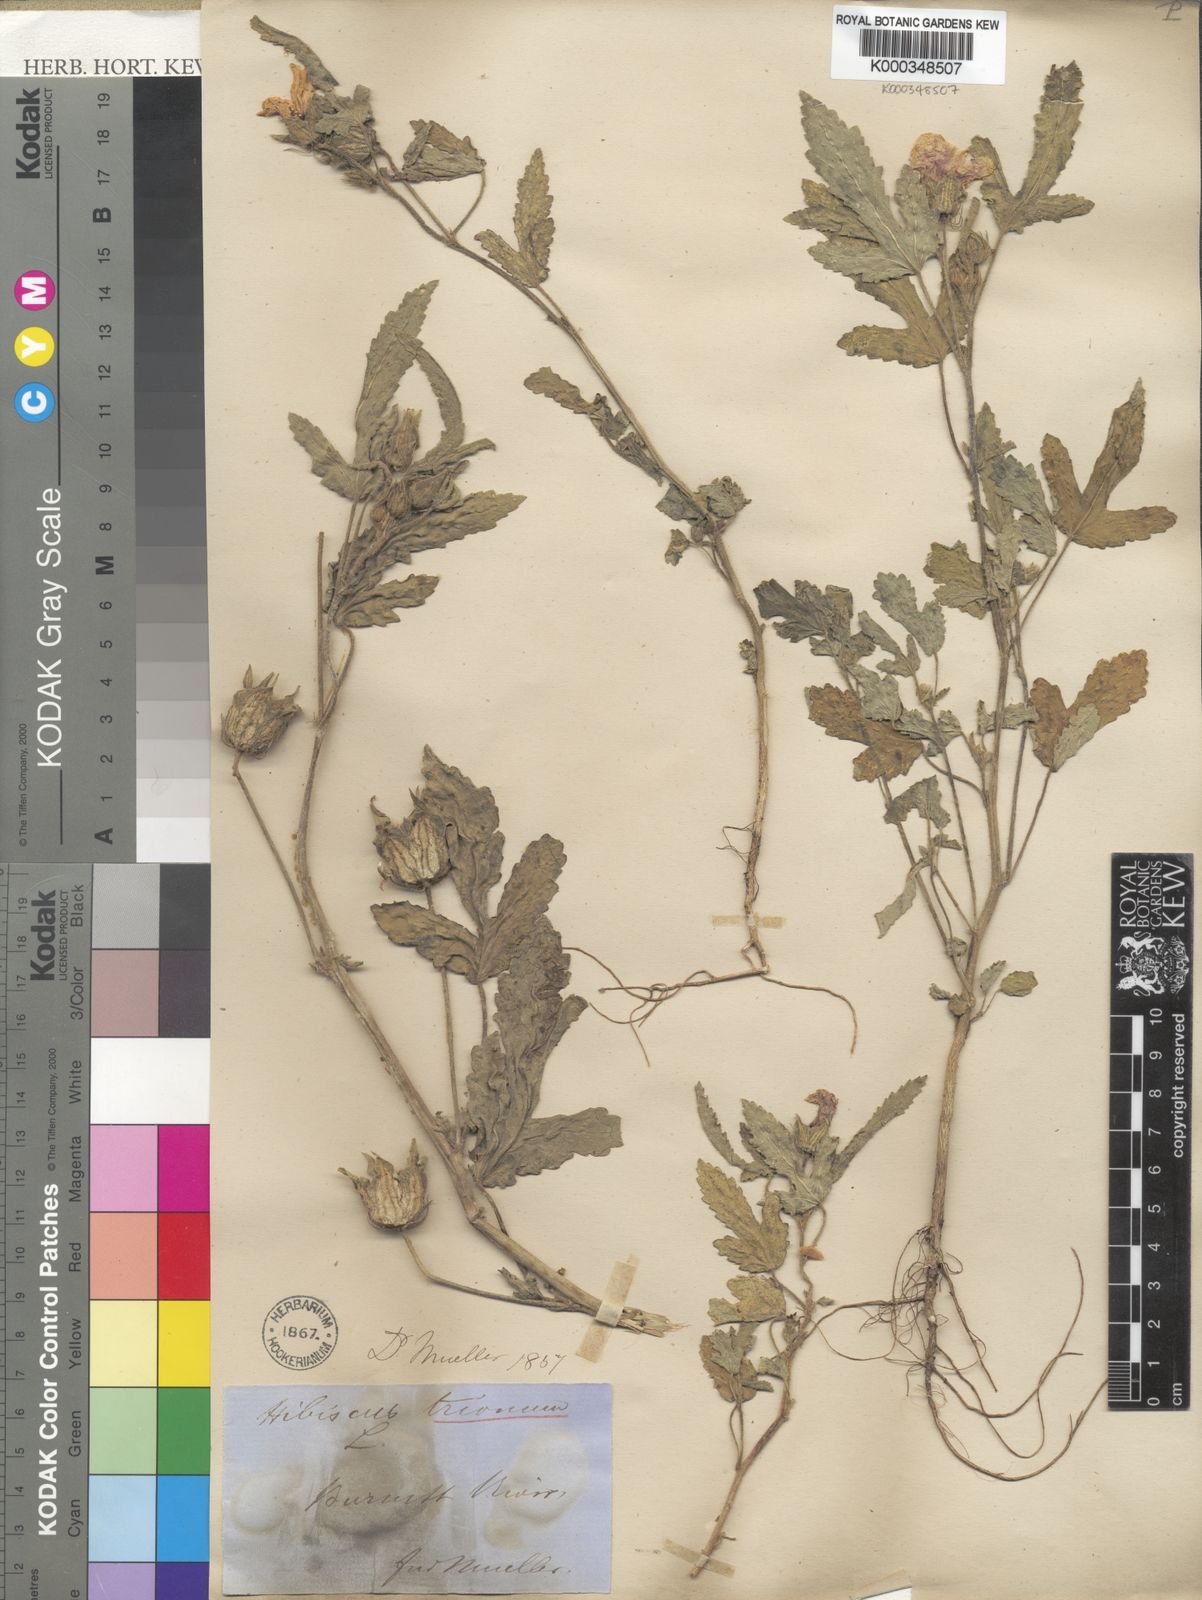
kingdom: Plantae
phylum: Tracheophyta
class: Magnoliopsida
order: Malvales
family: Malvaceae
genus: Hibiscus
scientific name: Hibiscus trionum
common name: Bladder ketmia
